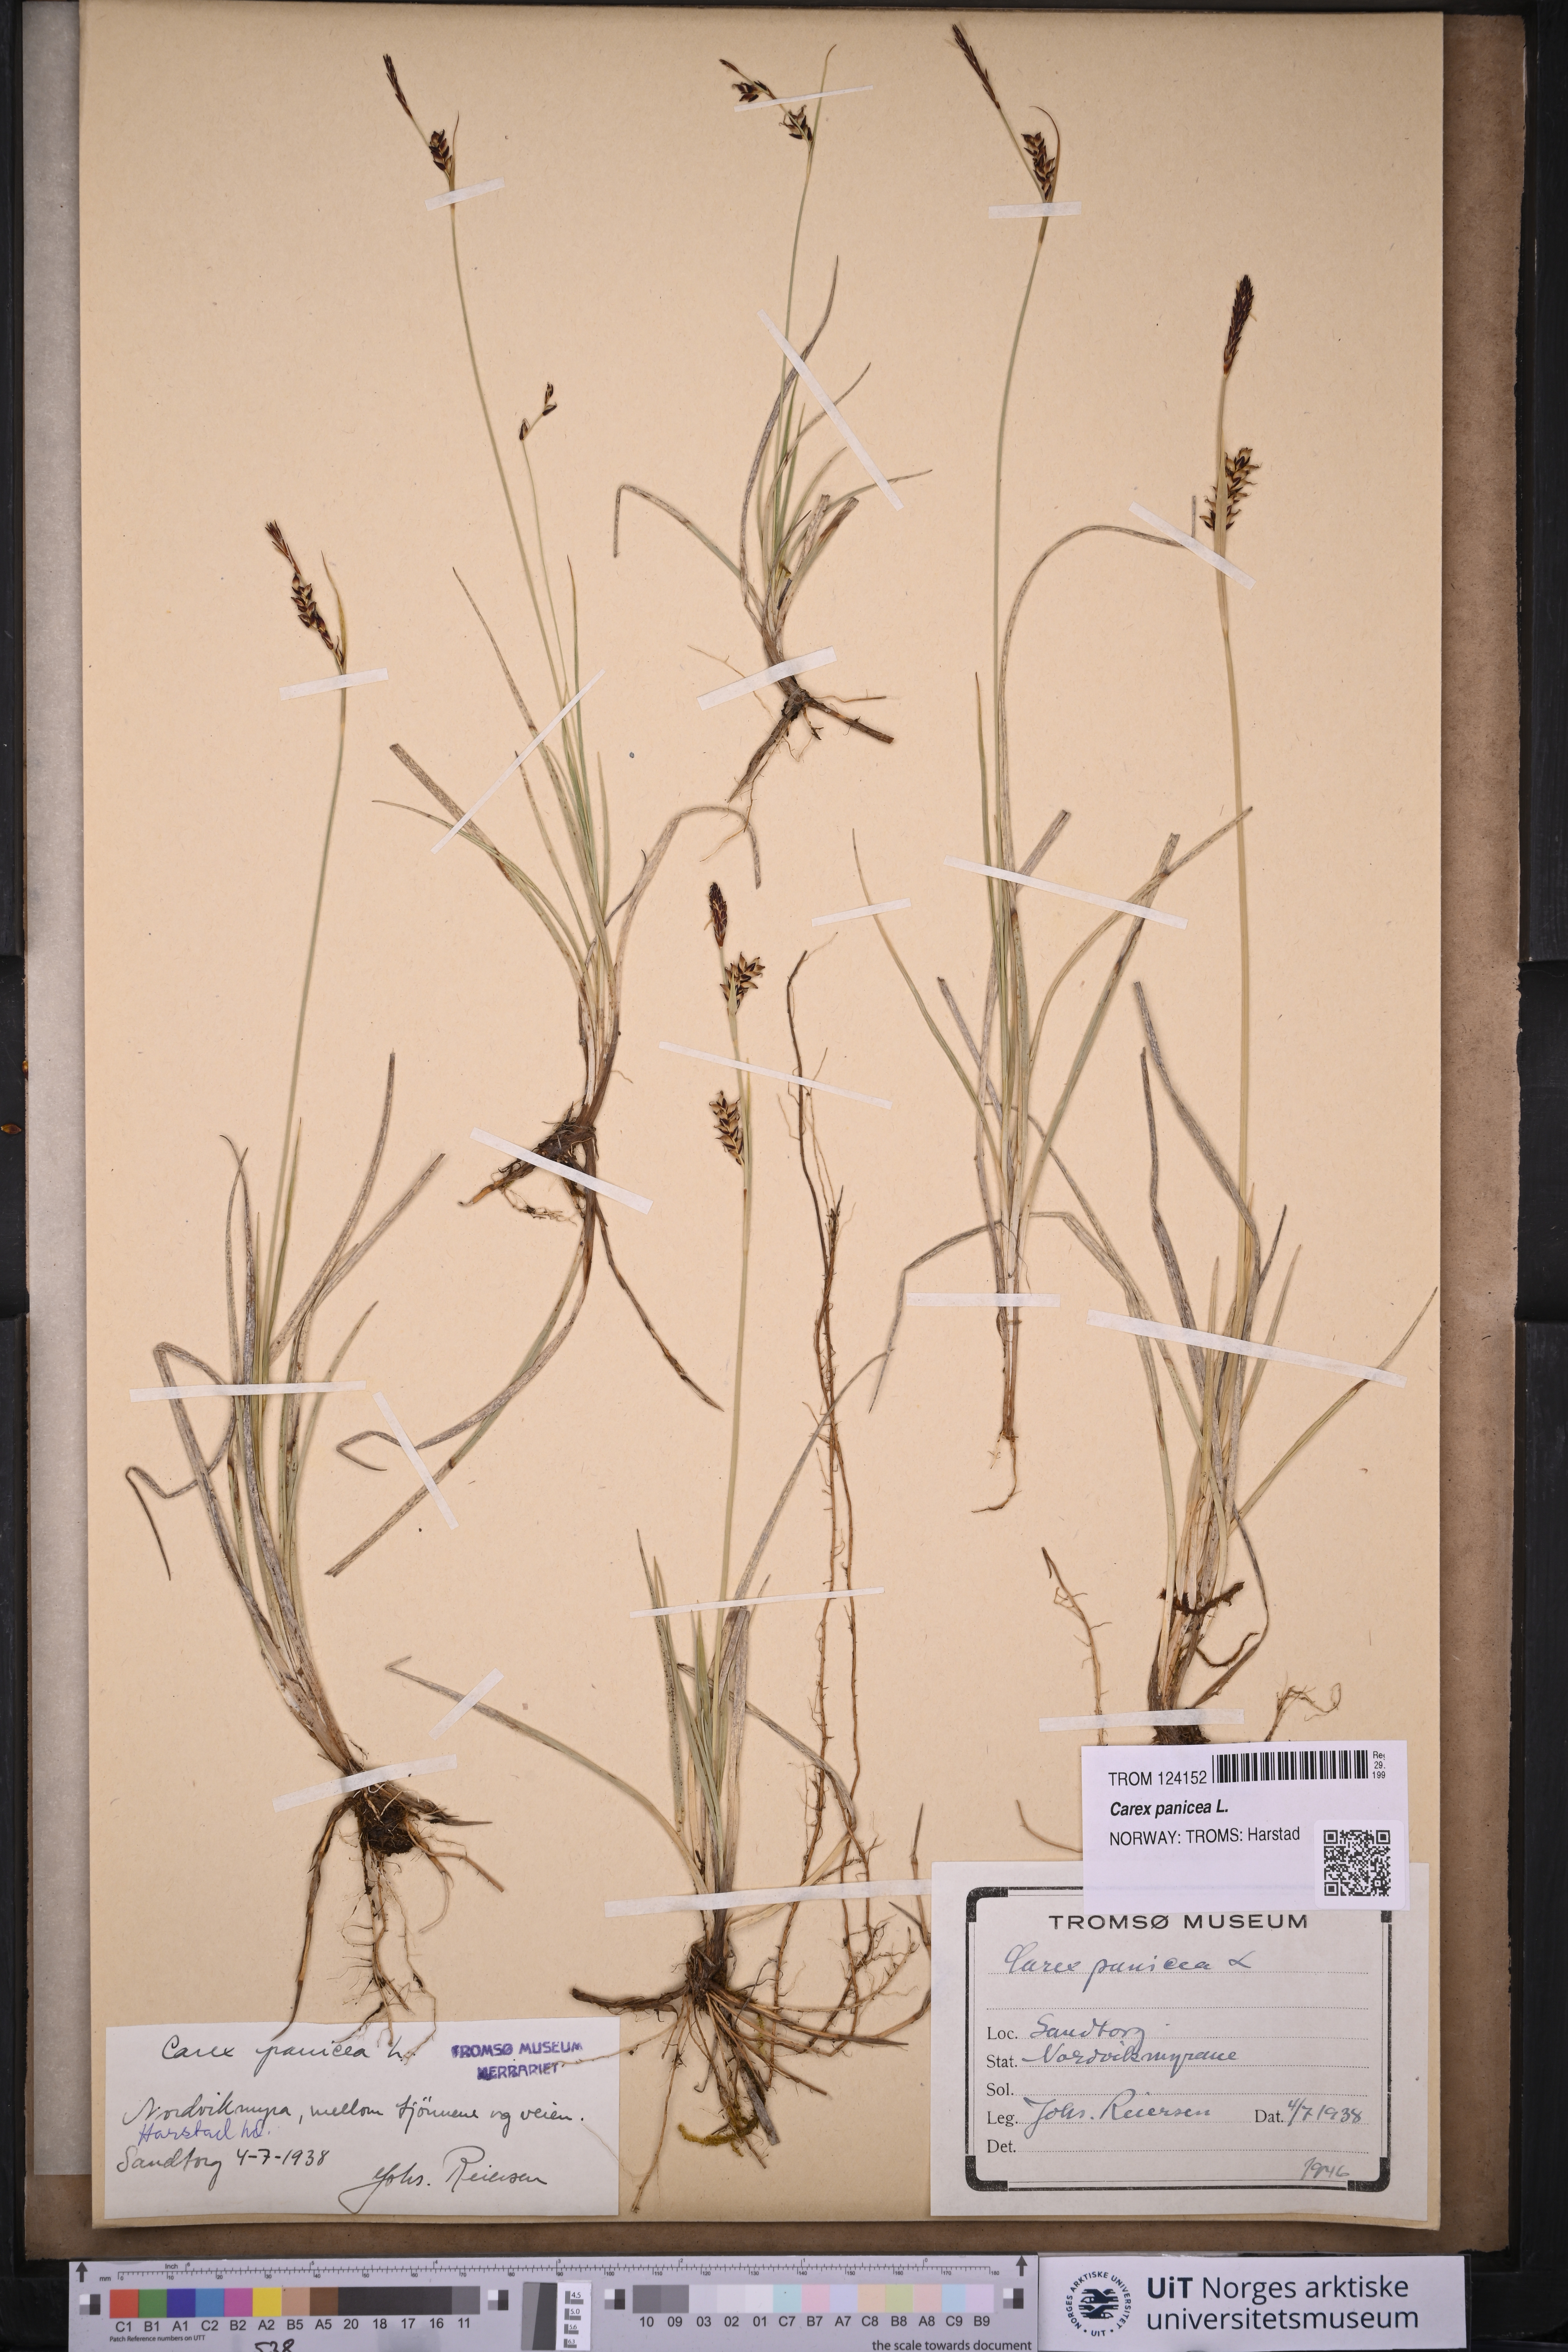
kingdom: Plantae
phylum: Tracheophyta
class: Liliopsida
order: Poales
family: Cyperaceae
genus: Carex
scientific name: Carex panicea
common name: Carnation sedge
